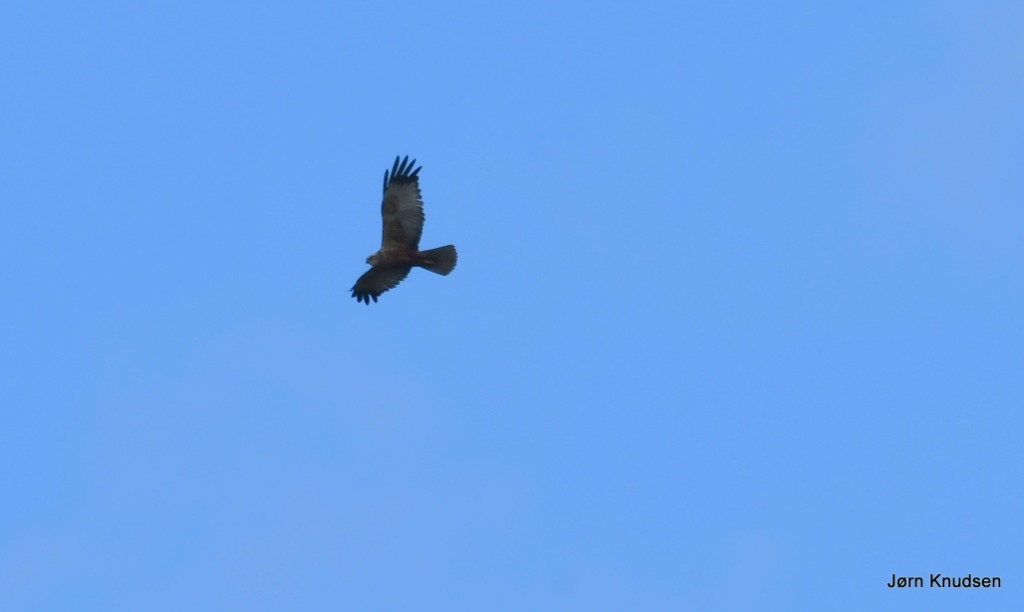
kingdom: Animalia
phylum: Chordata
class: Aves
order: Accipitriformes
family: Accipitridae
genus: Circus
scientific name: Circus aeruginosus
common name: Rørhøg
